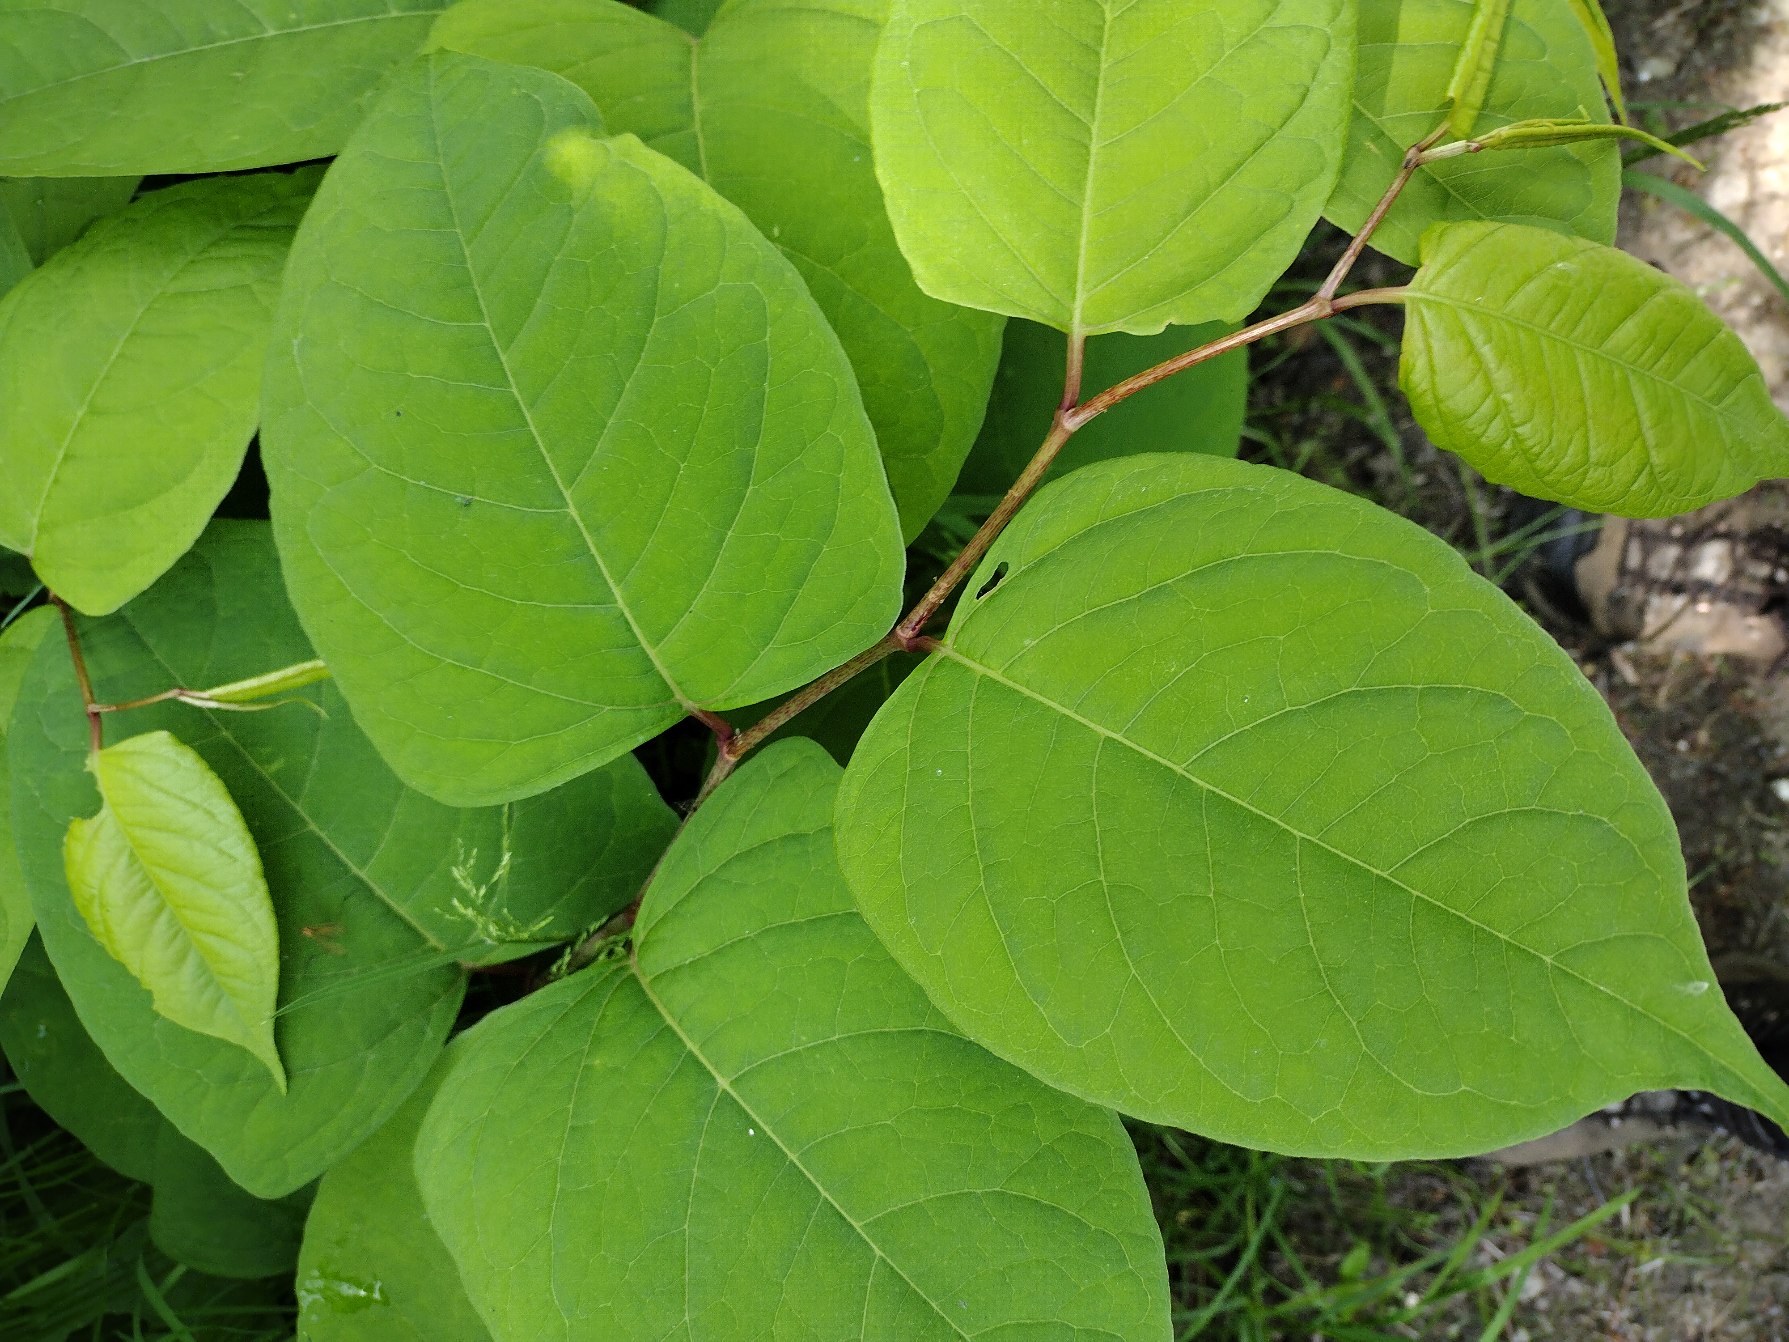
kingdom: Plantae
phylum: Tracheophyta
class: Magnoliopsida
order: Caryophyllales
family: Polygonaceae
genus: Reynoutria
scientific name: Reynoutria japonica
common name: Japan-pileurt
